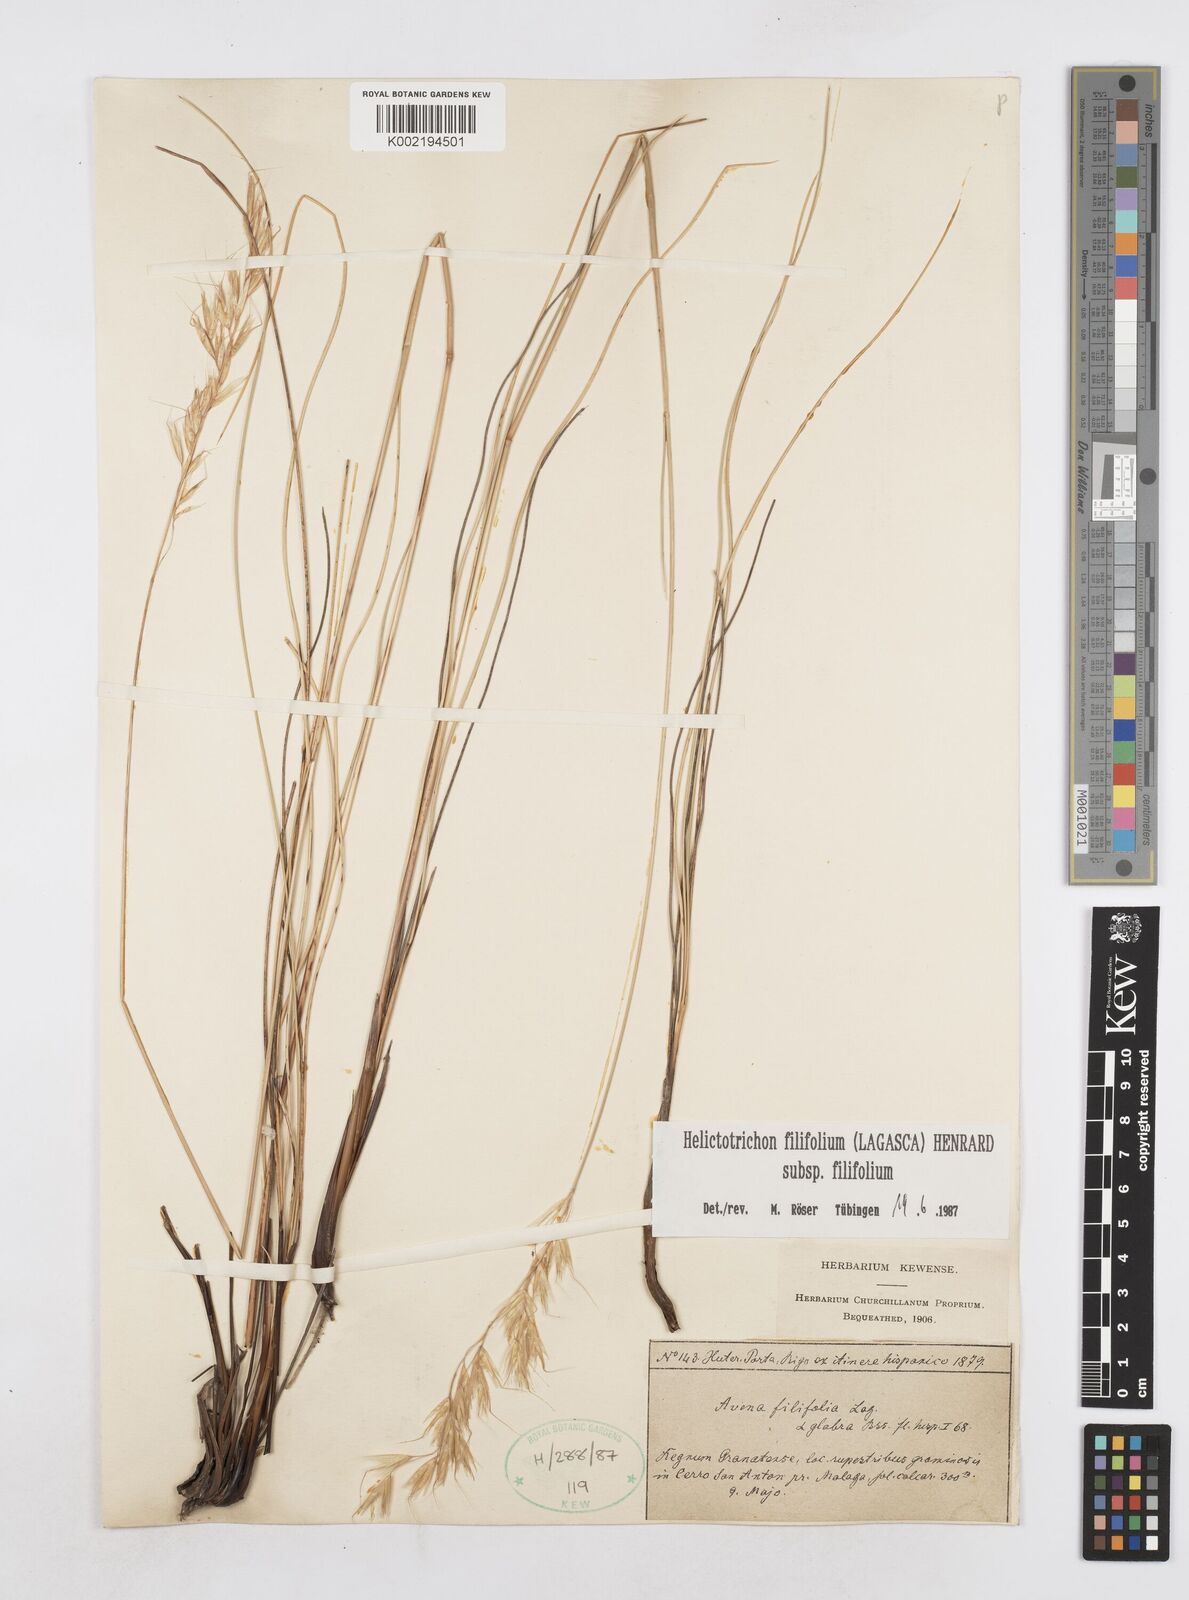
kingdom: Plantae
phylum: Tracheophyta
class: Liliopsida
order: Poales
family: Poaceae
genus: Helictotrichon
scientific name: Helictotrichon filifolium
